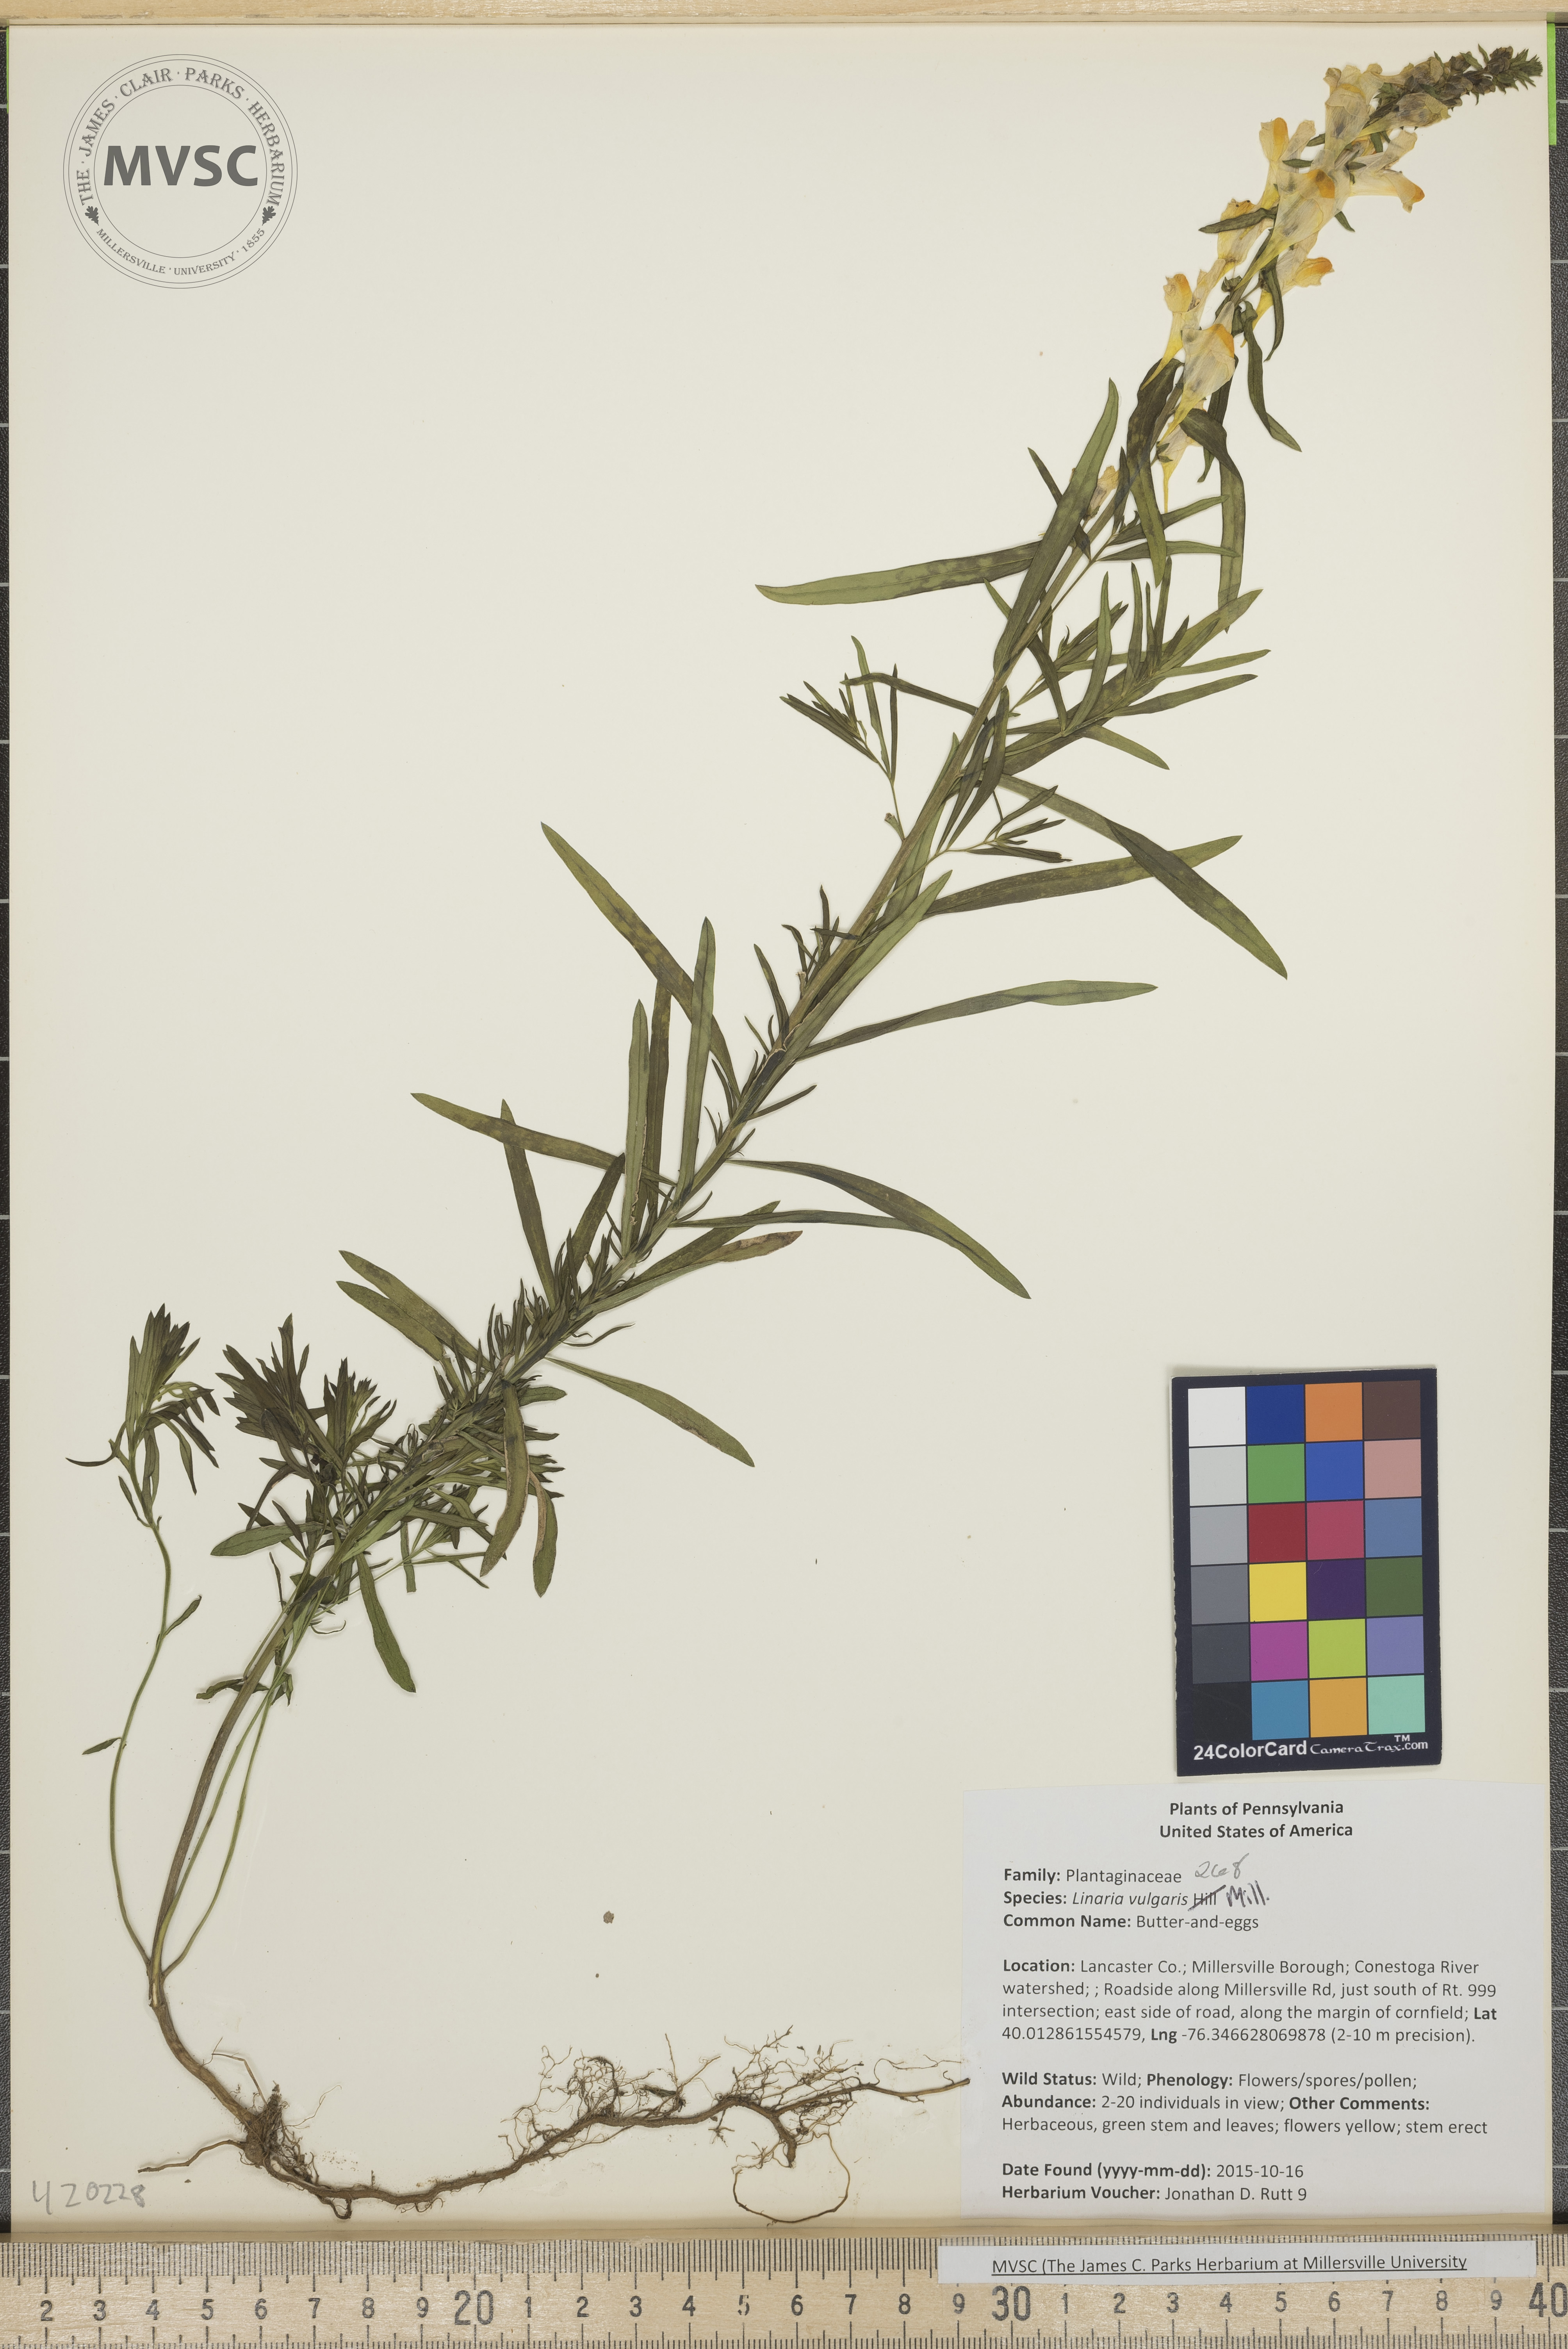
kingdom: Plantae
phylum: Tracheophyta
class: Magnoliopsida
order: Lamiales
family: Plantaginaceae
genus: Linaria
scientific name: Linaria vulgaris
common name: Butter-and-eggs
